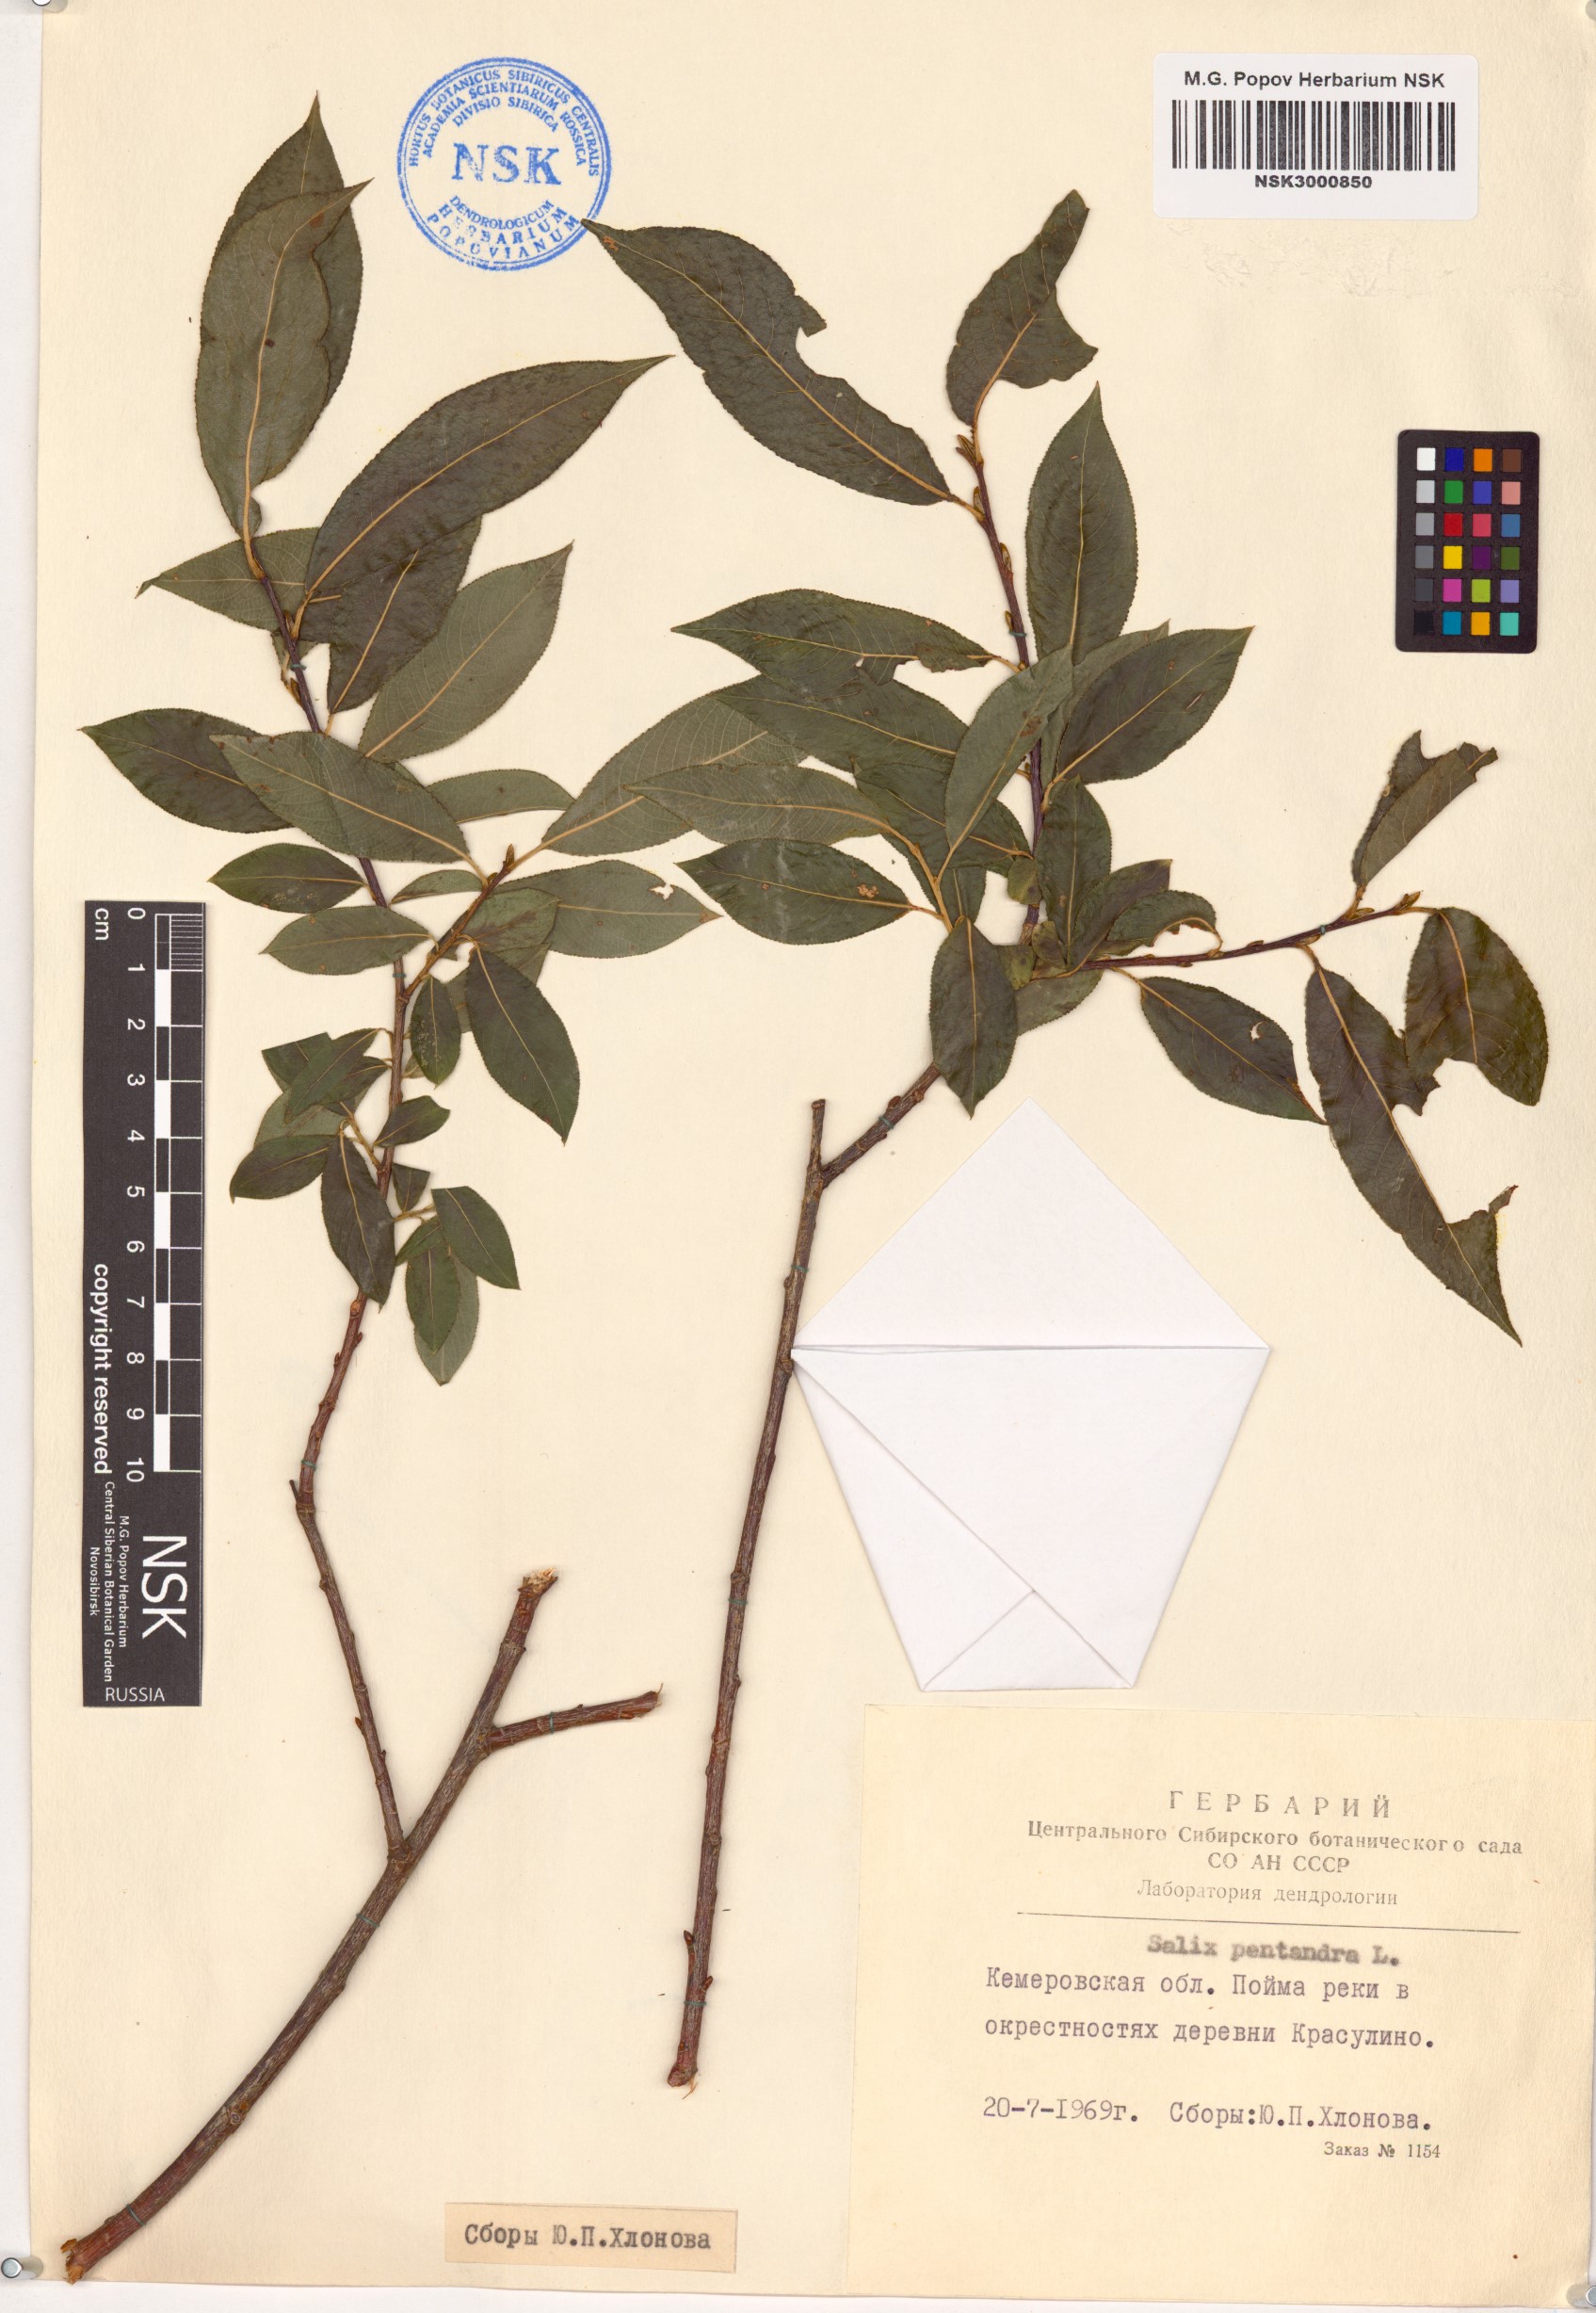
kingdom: Plantae
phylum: Tracheophyta
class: Magnoliopsida
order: Malpighiales
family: Salicaceae
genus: Salix
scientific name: Salix pentandra
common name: Bay willow
